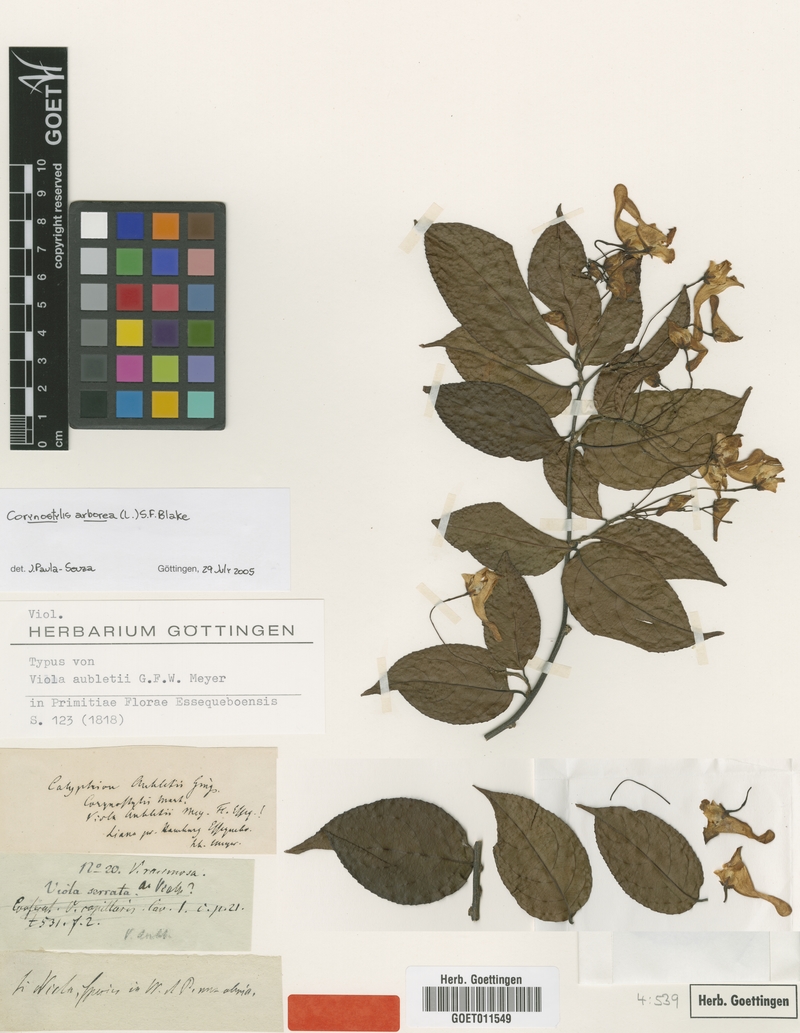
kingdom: Plantae
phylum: Tracheophyta
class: Magnoliopsida
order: Malpighiales
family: Violaceae
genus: Calyptrion
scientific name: Calyptrion arboreum
